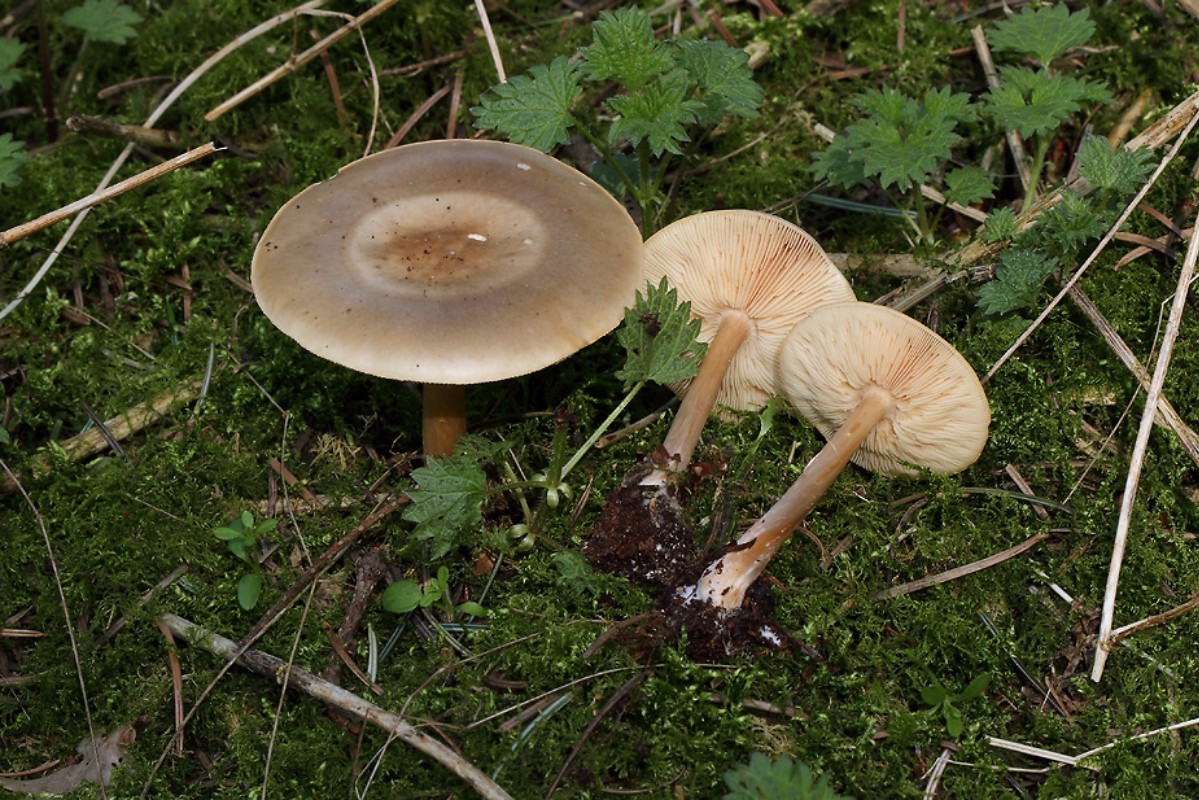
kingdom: Fungi
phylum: Basidiomycota
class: Agaricomycetes
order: Agaricales
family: Tricholomataceae
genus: Melanoleuca
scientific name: Melanoleuca cognata
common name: gyldengrå munkehat
